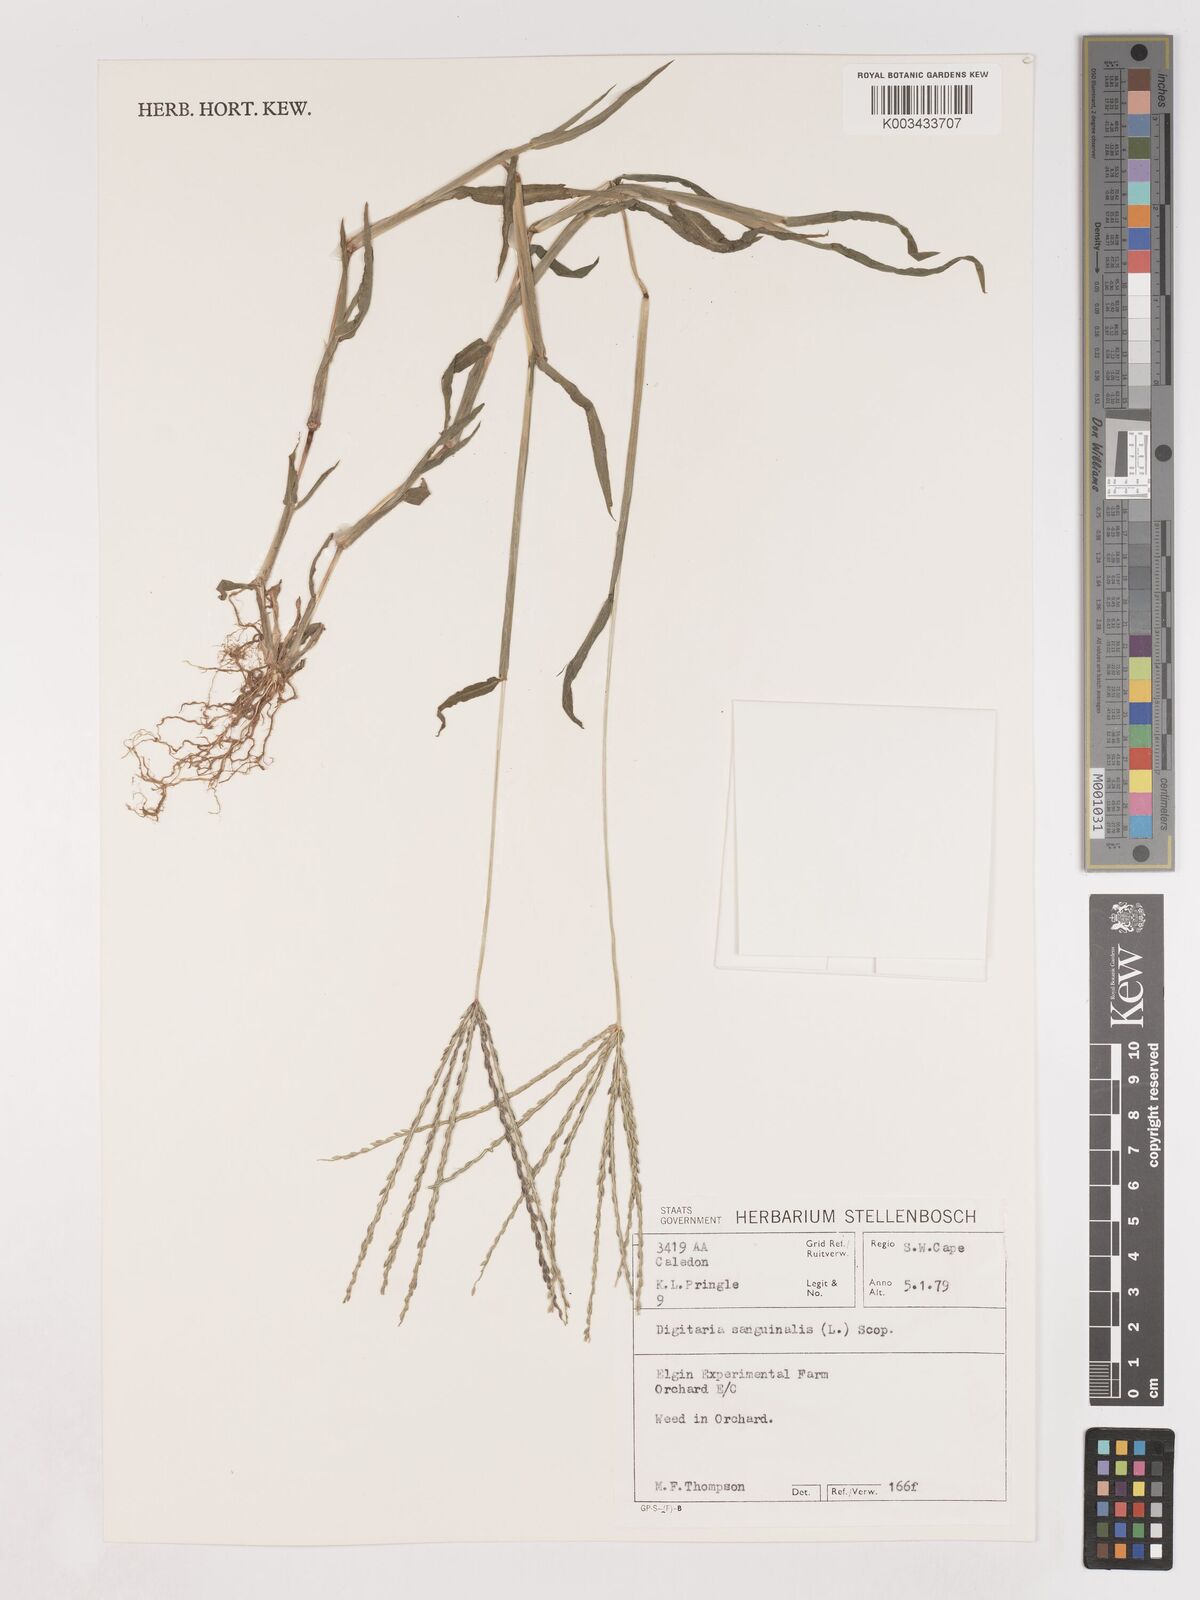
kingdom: Plantae
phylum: Tracheophyta
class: Liliopsida
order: Poales
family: Poaceae
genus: Digitaria
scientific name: Digitaria sanguinalis
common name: Hairy crabgrass
